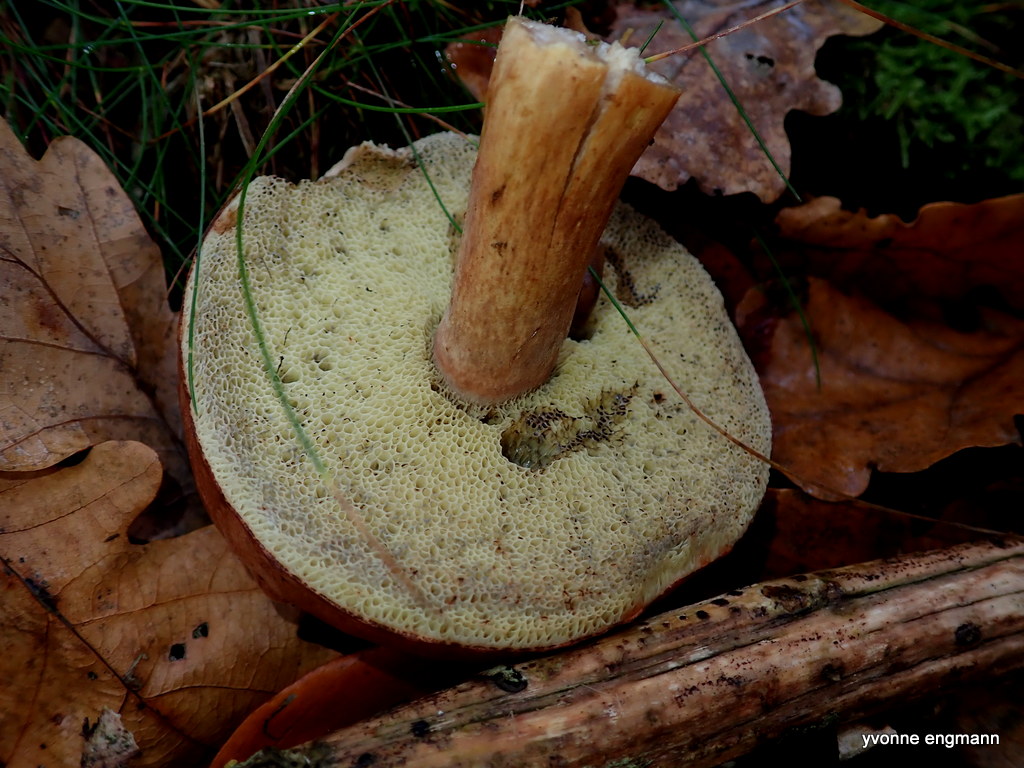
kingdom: Fungi
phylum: Basidiomycota
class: Agaricomycetes
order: Boletales
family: Boletaceae
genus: Imleria
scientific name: Imleria badia
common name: brunstokket rørhat
